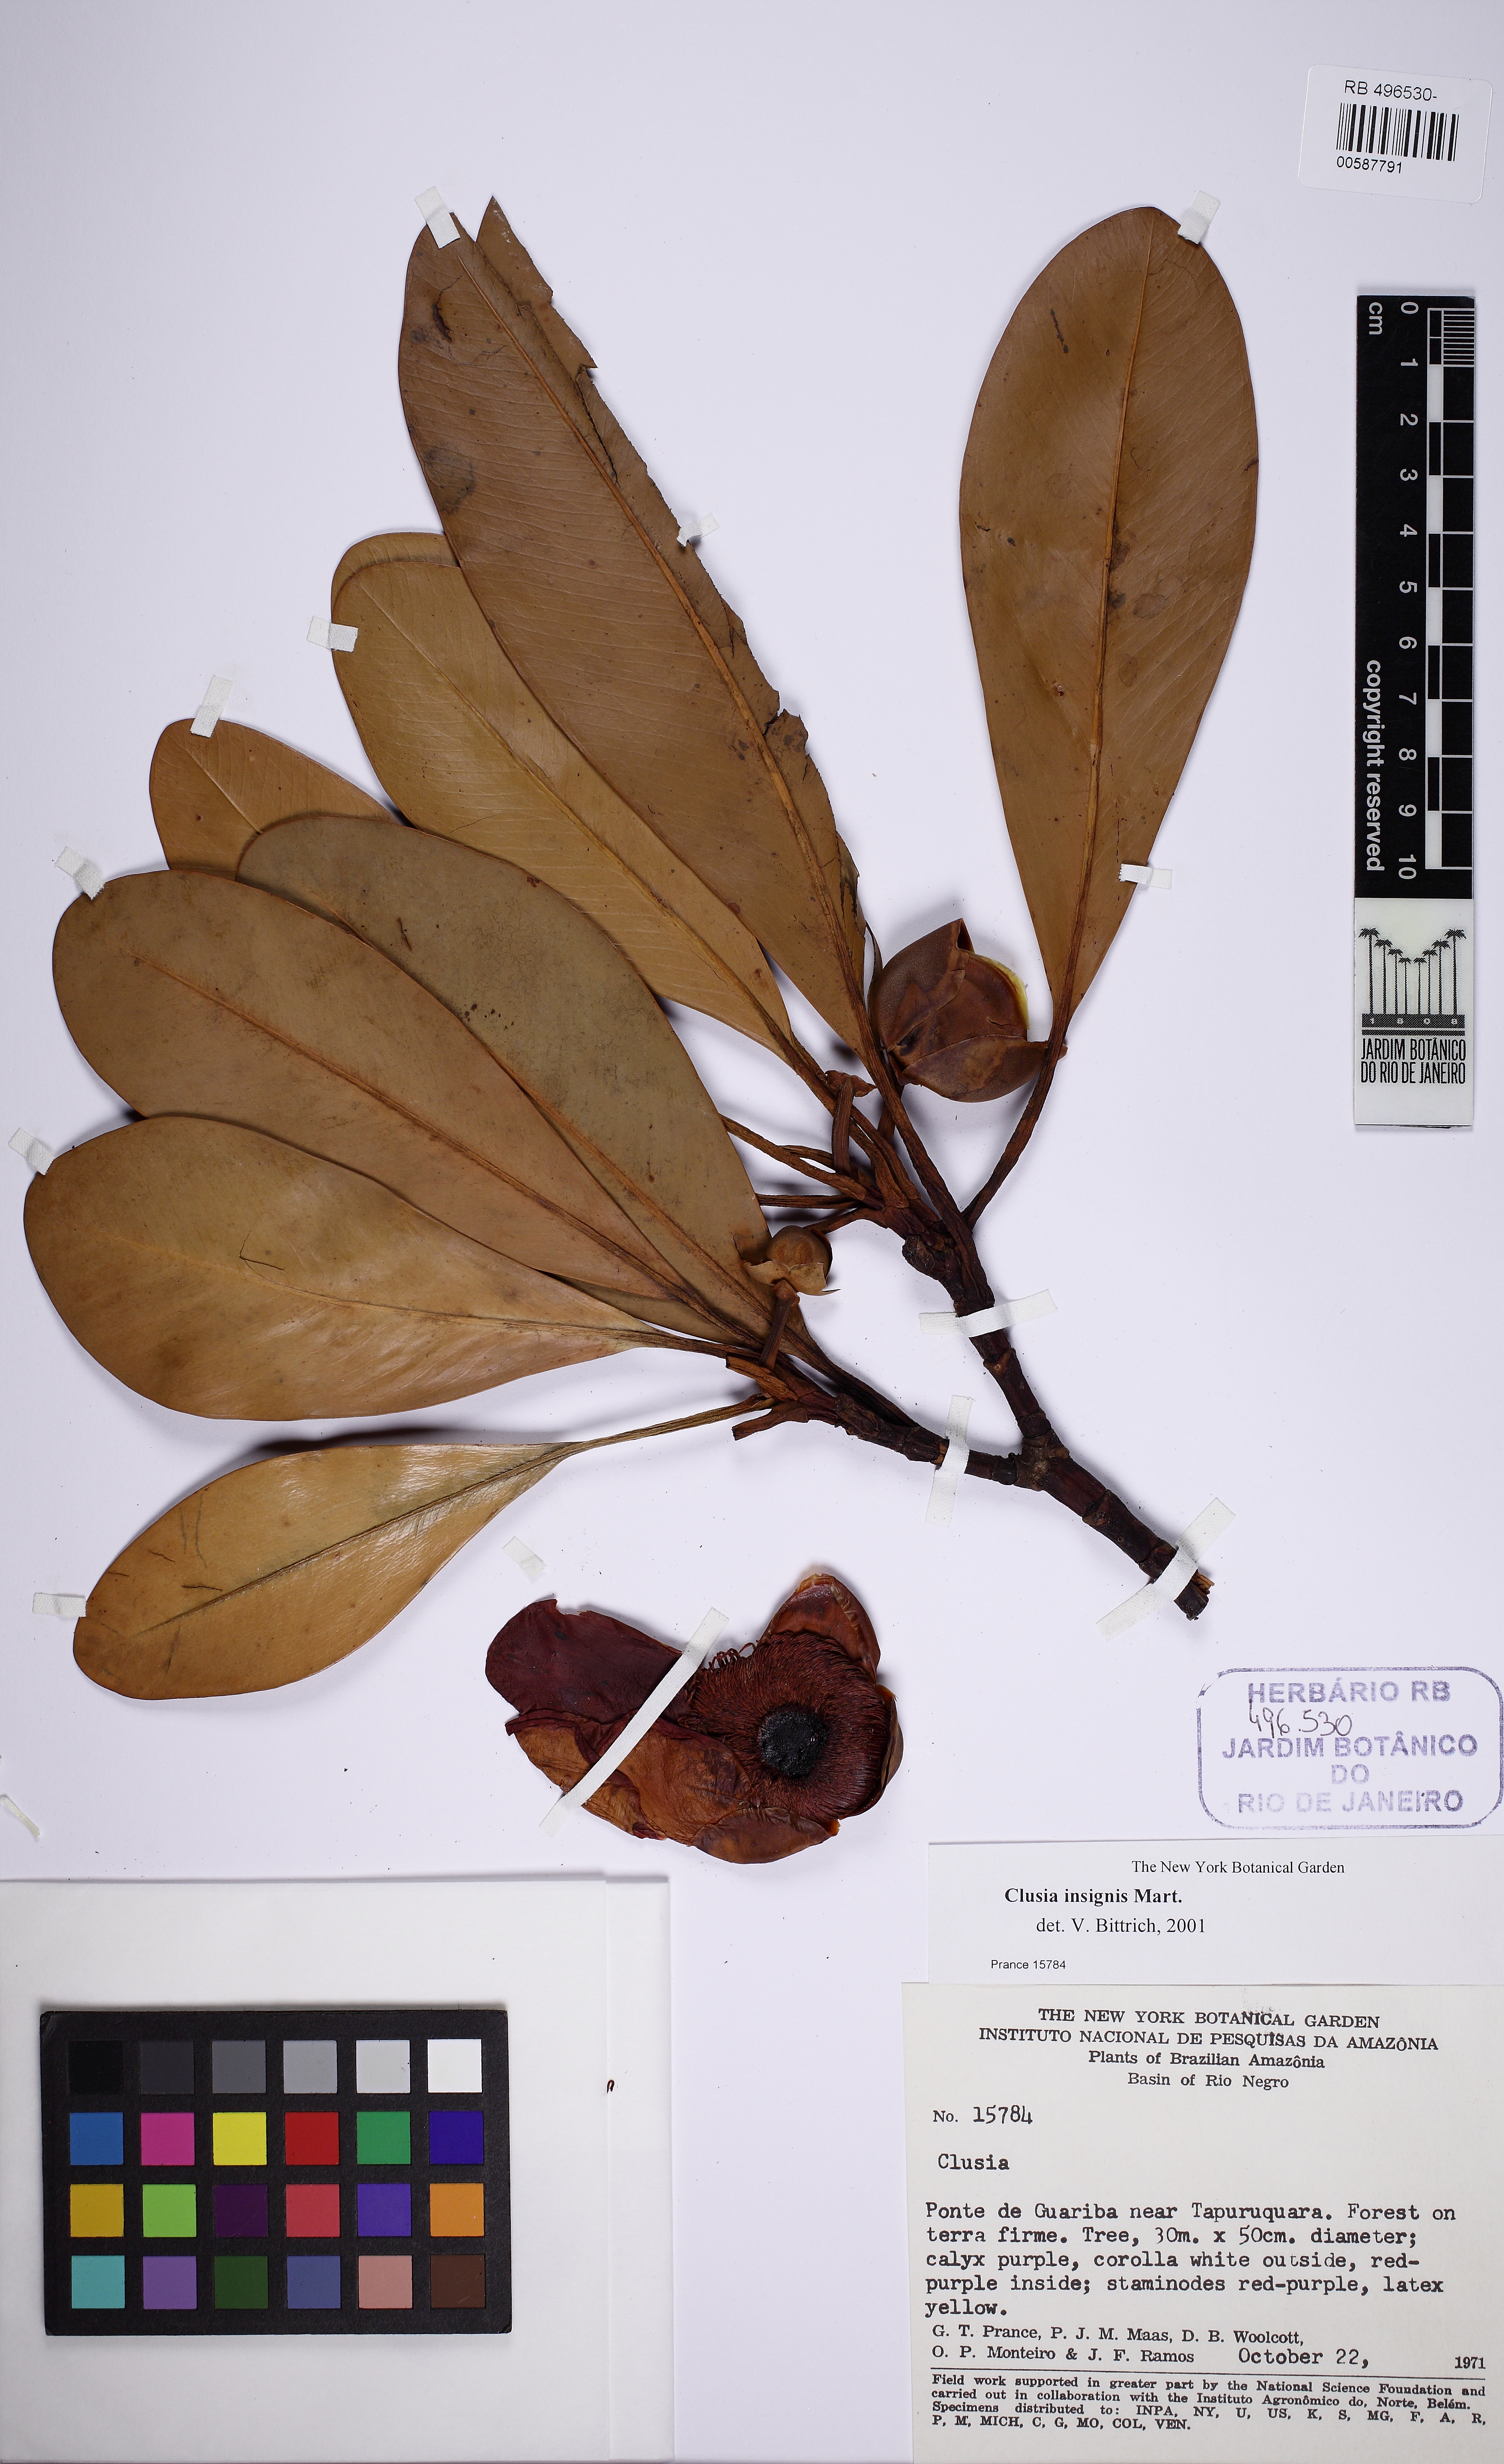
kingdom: Plantae
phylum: Tracheophyta
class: Magnoliopsida
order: Malpighiales
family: Clusiaceae
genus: Clusia
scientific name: Clusia insignis
